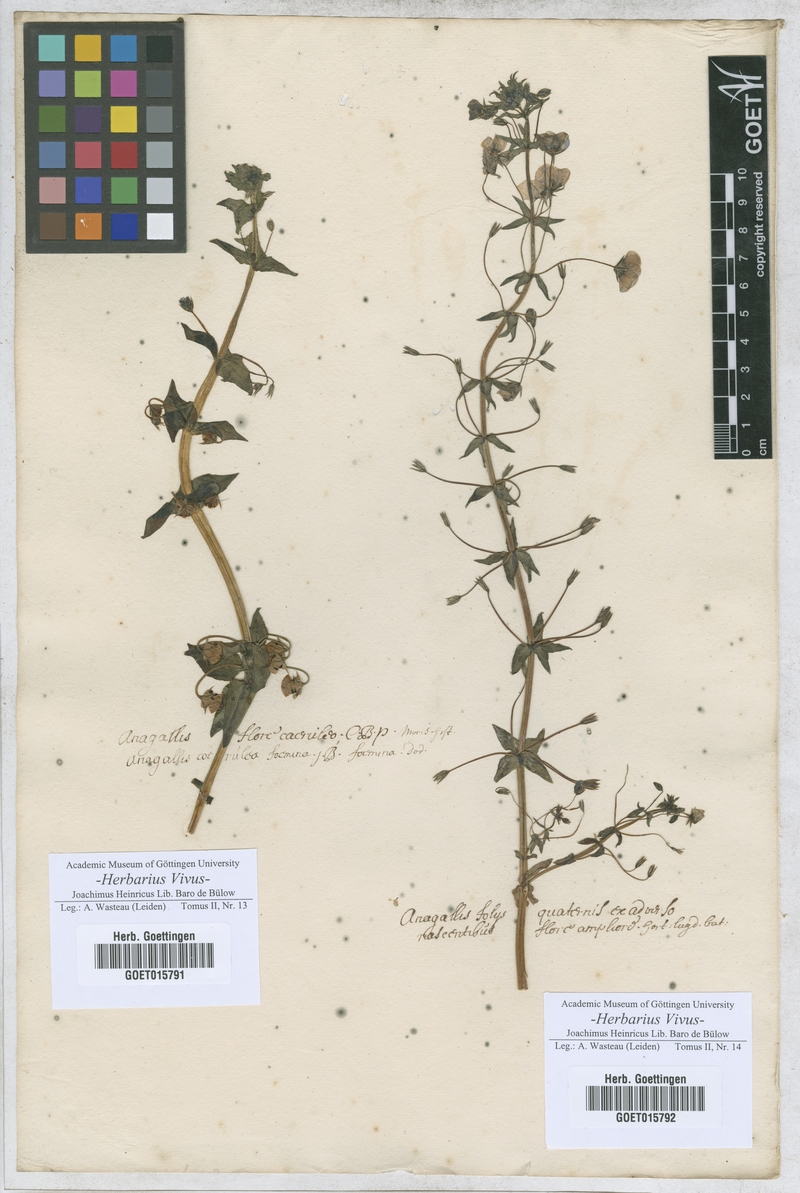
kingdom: Plantae
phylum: Tracheophyta
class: Magnoliopsida
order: Ericales
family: Primulaceae
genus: Lysimachia
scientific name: Lysimachia Anagallis spec
